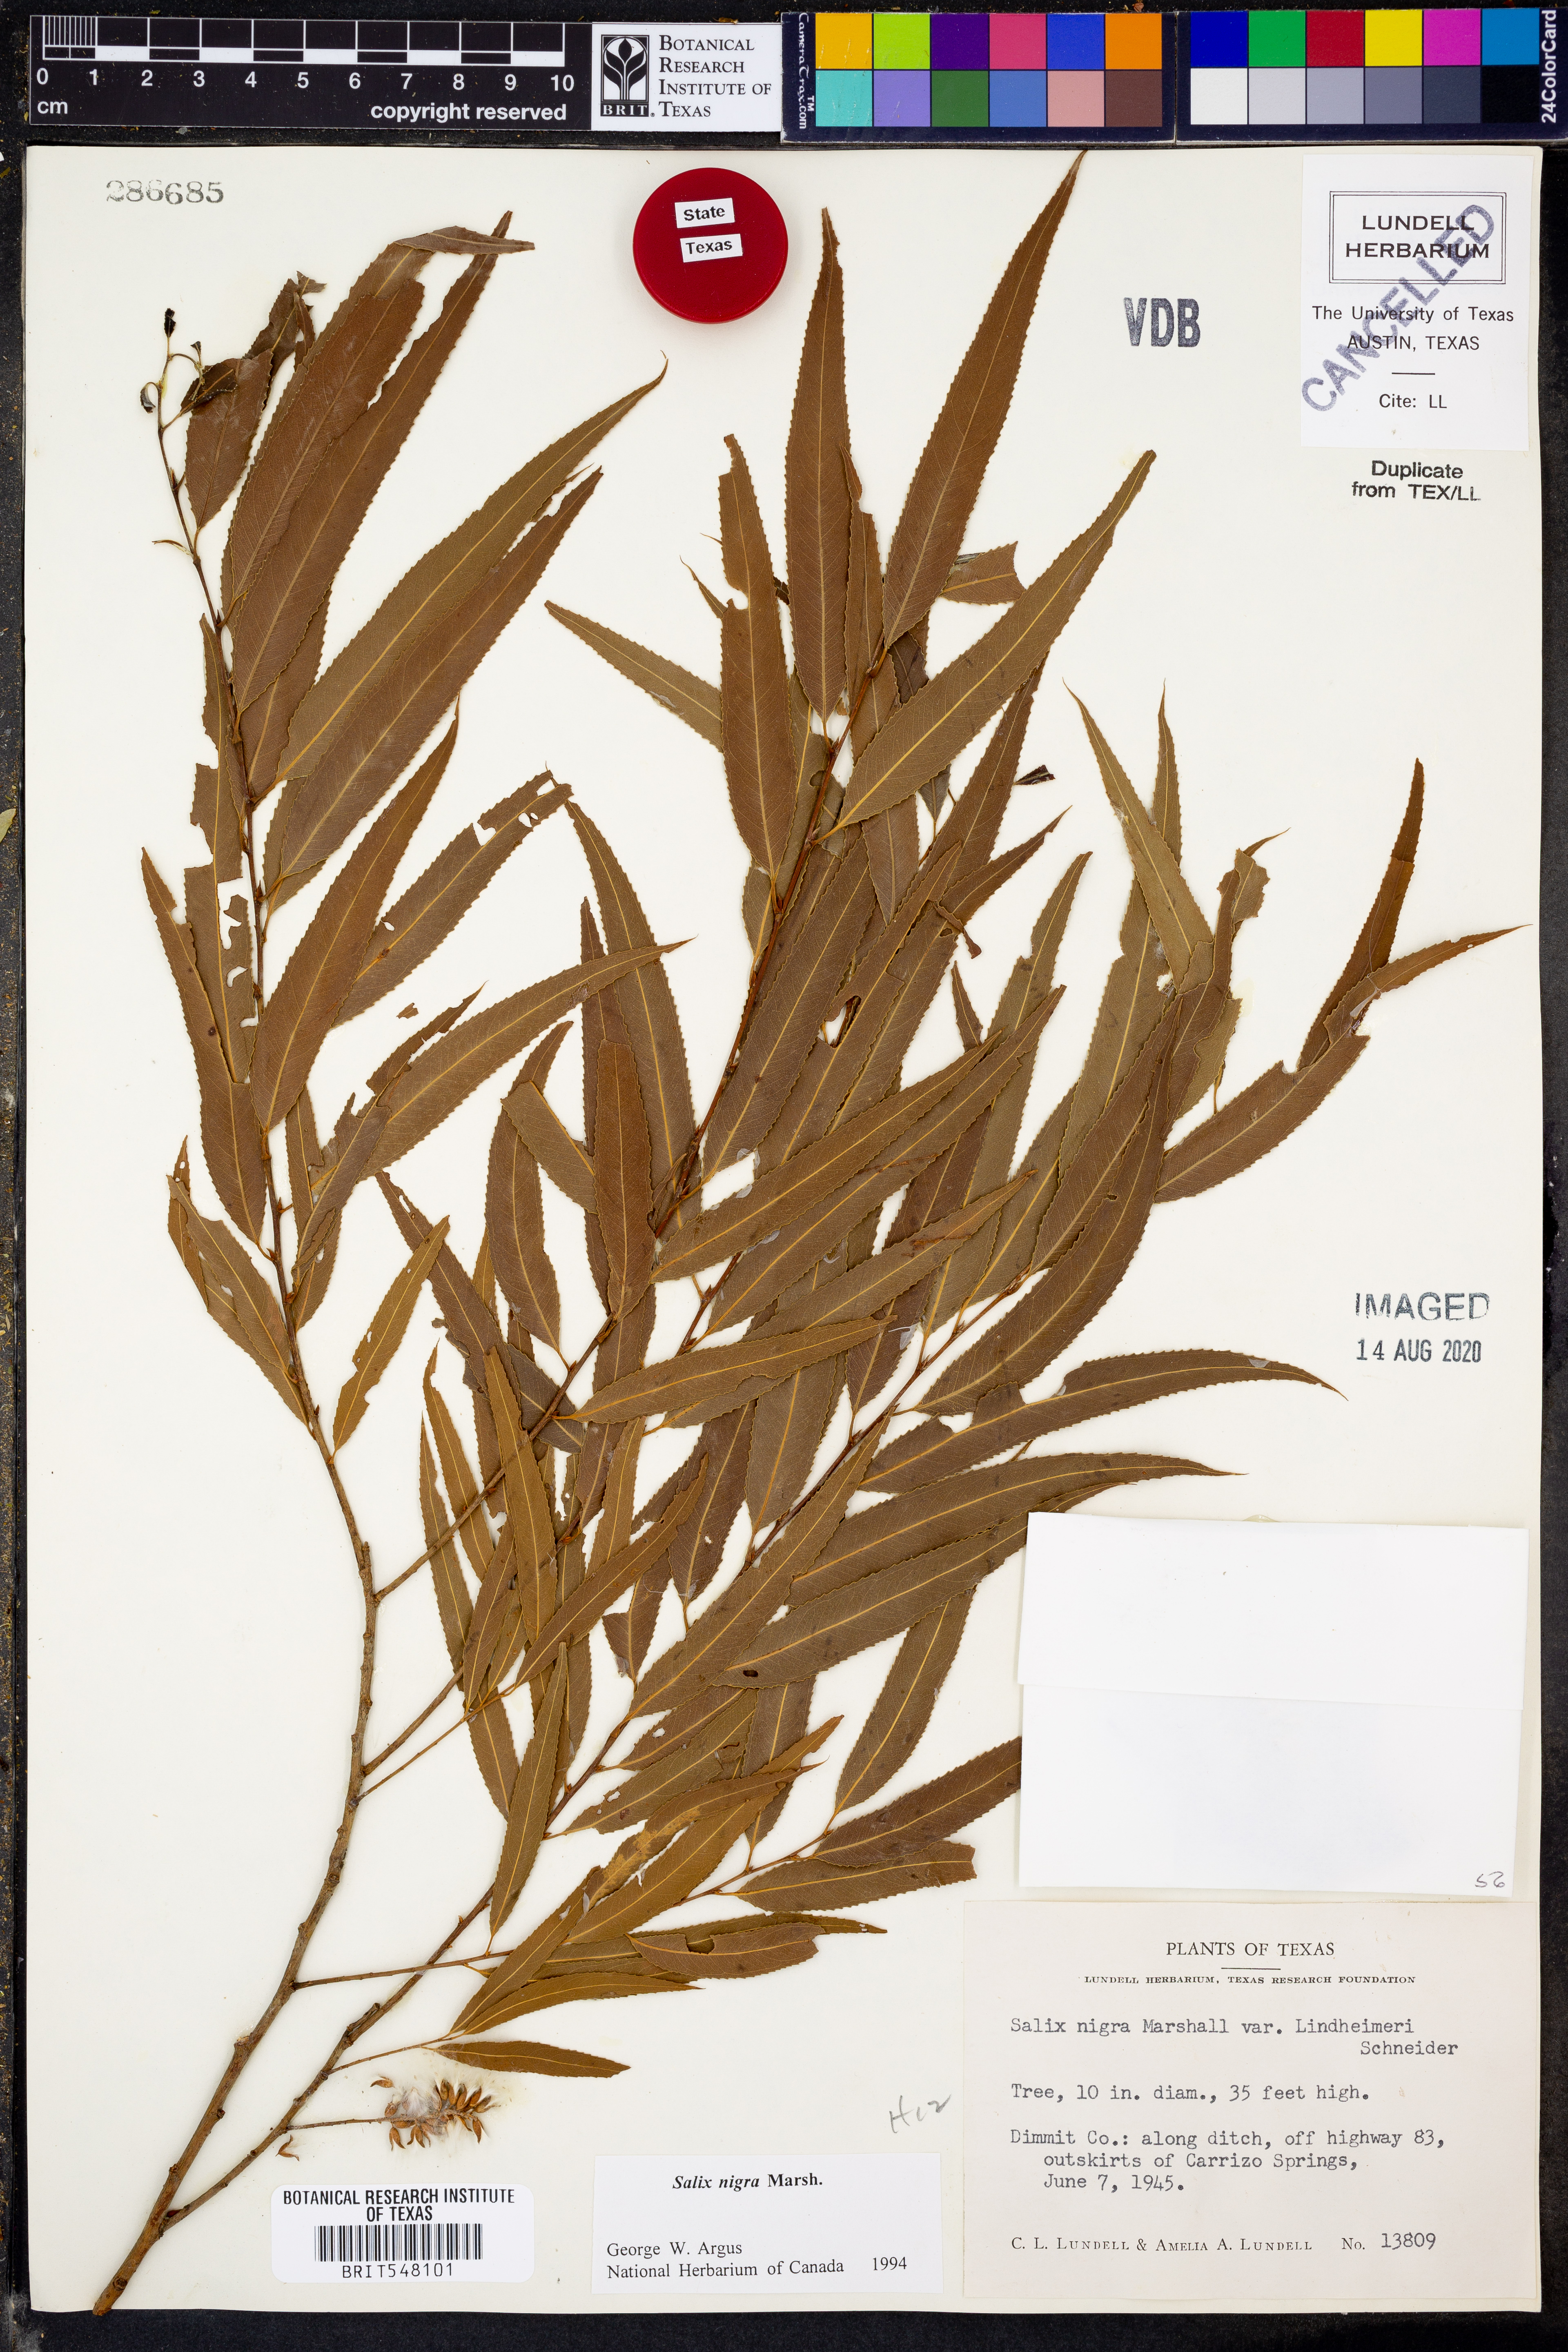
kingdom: Plantae
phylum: Tracheophyta
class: Magnoliopsida
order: Malpighiales
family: Salicaceae
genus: Salix
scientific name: Salix nigra
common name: Black willow
